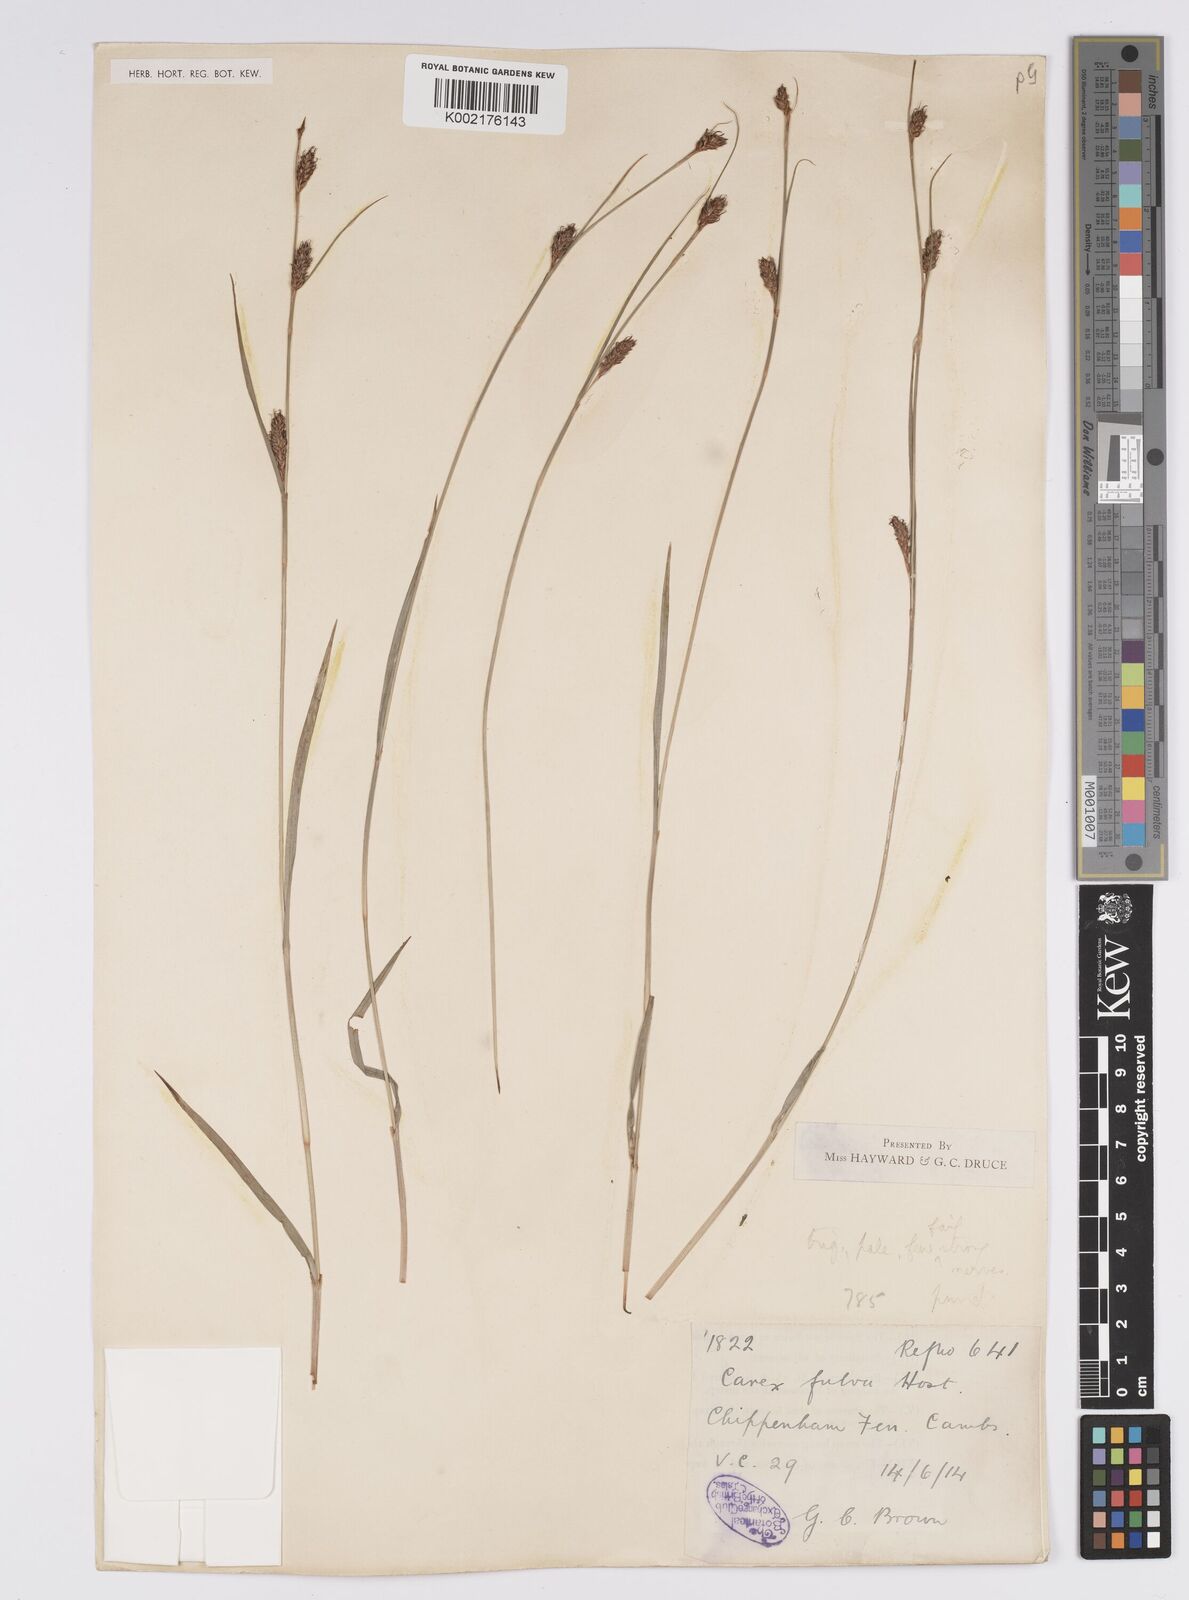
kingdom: Plantae
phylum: Tracheophyta
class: Liliopsida
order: Poales
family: Cyperaceae
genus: Carex
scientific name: Carex distans
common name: Distant sedge
